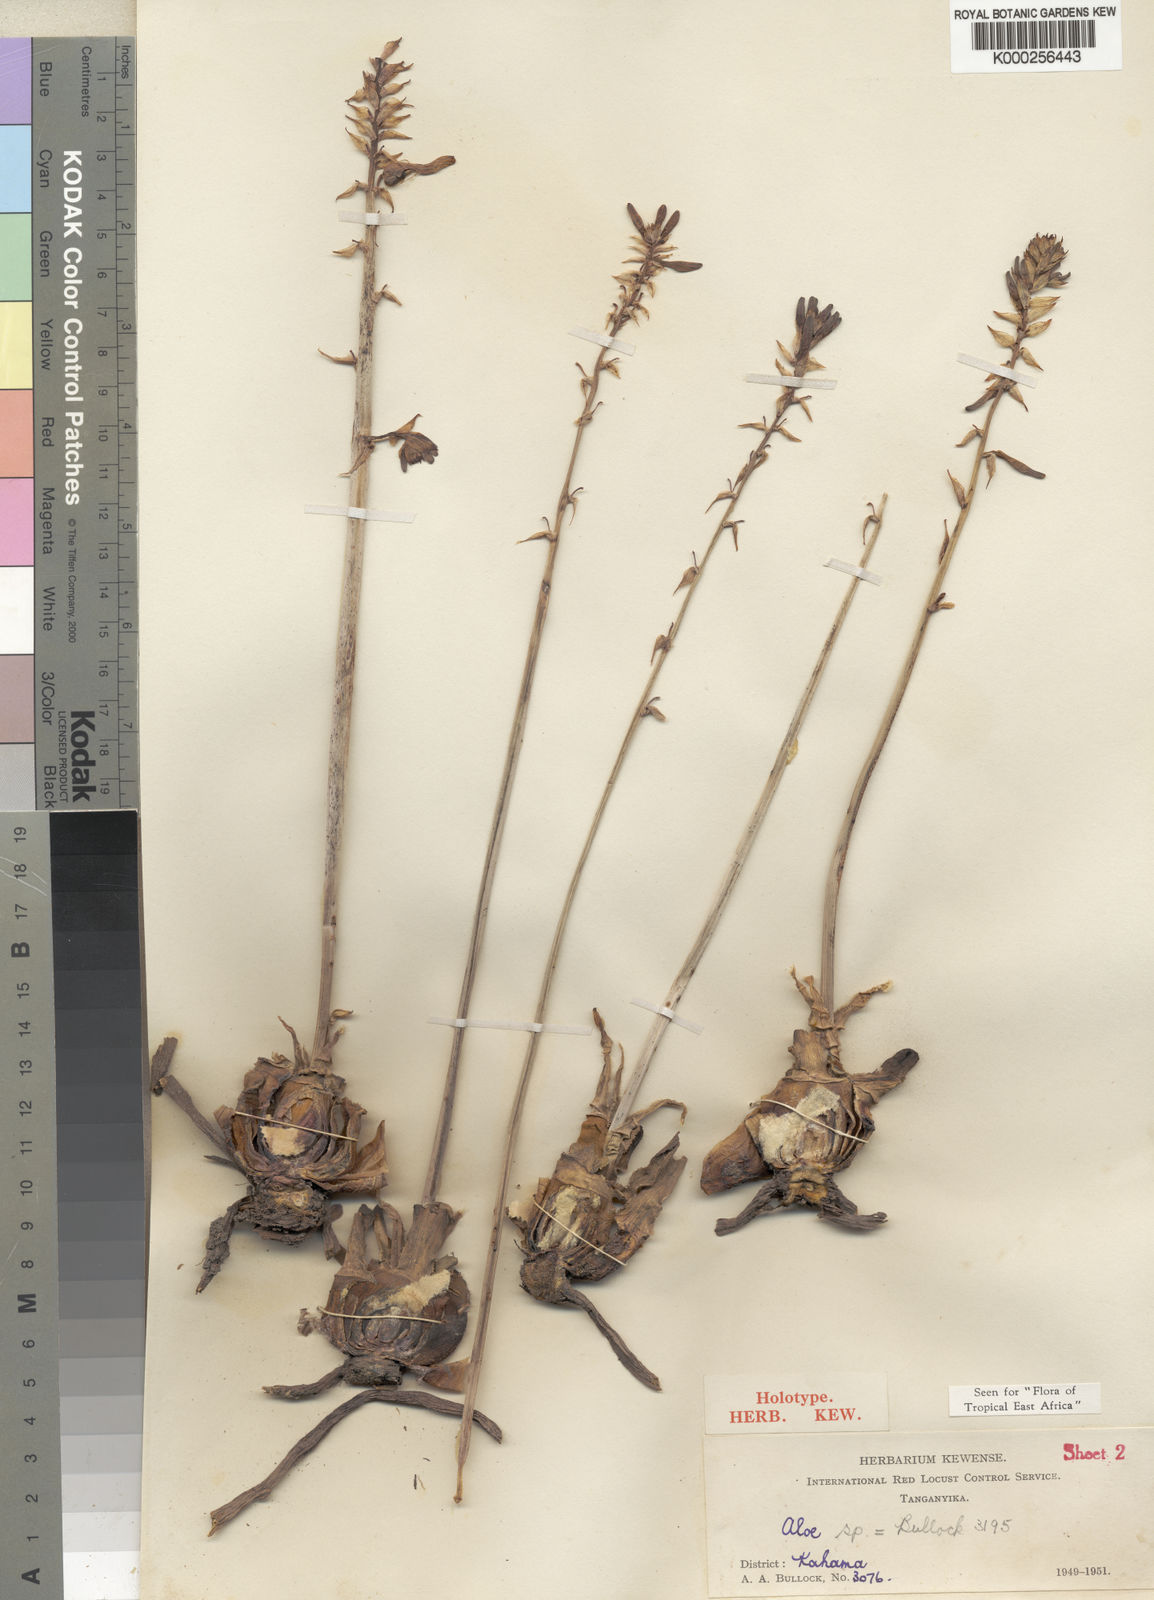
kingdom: Plantae
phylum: Tracheophyta
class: Liliopsida
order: Asparagales
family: Asphodelaceae
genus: Aloe
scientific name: Aloe bullockii
